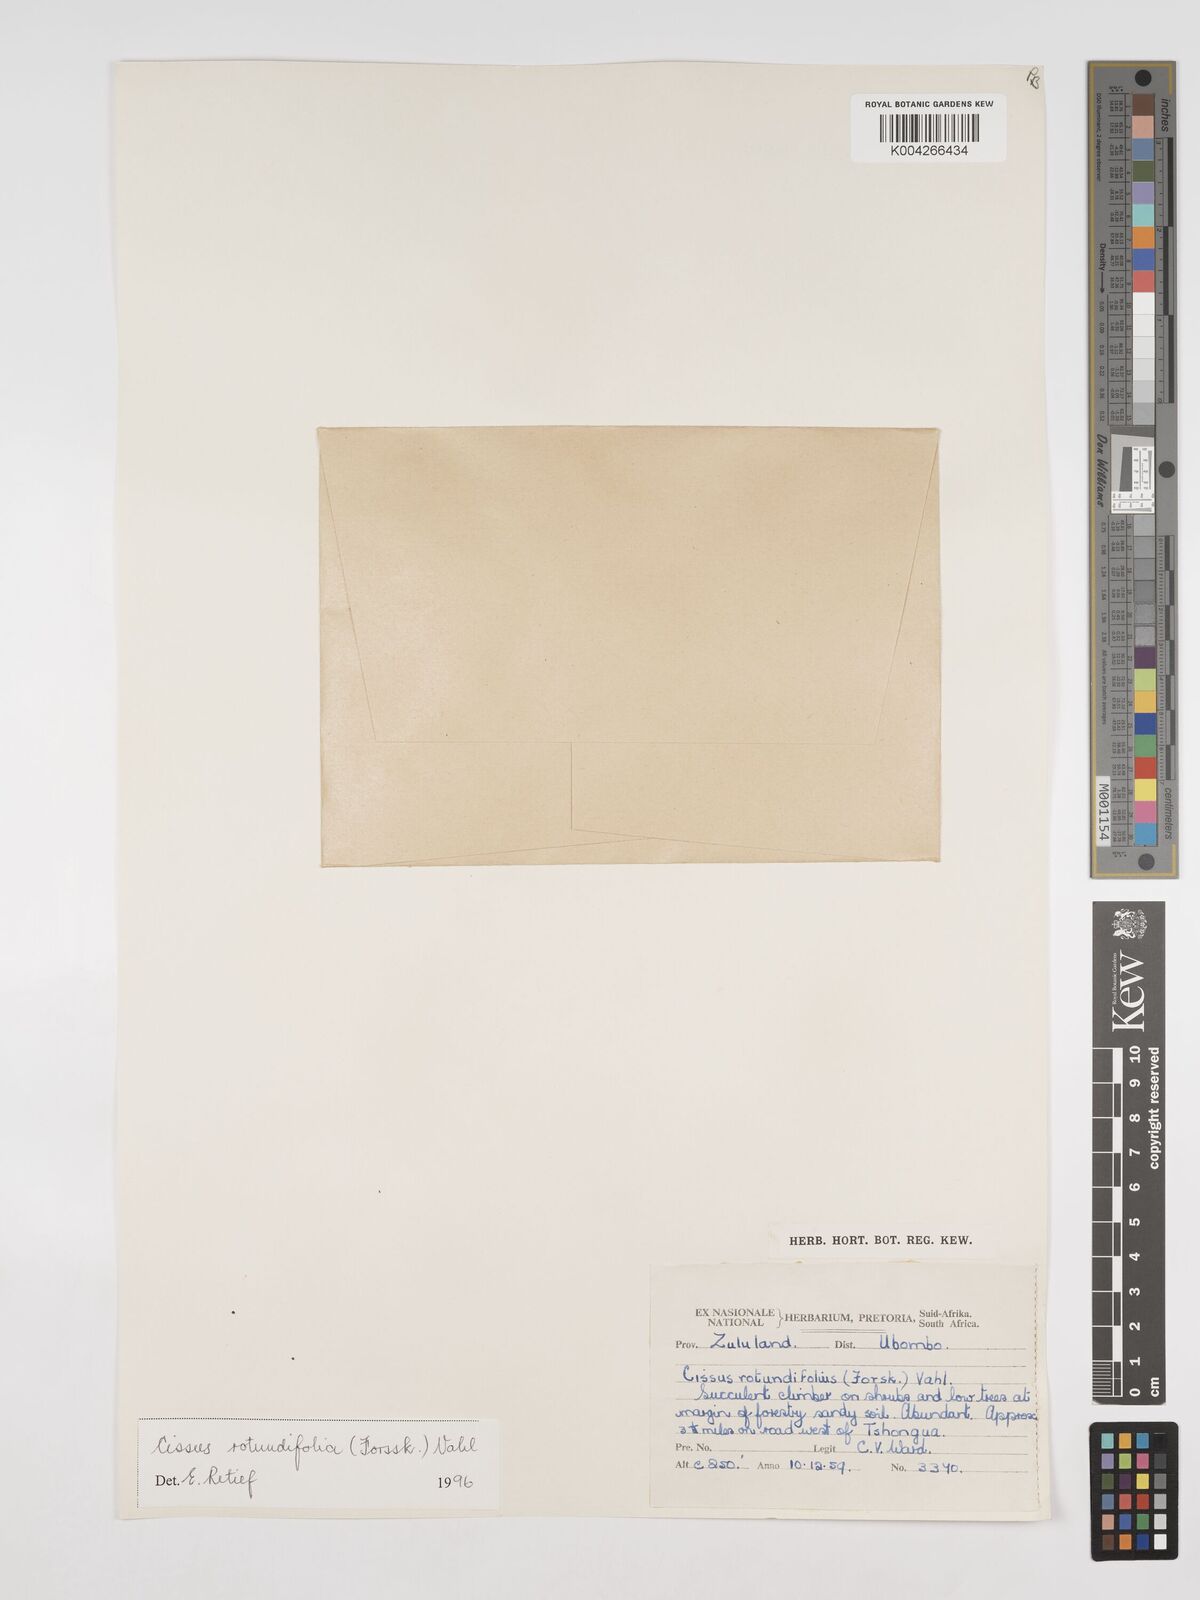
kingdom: Plantae
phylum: Tracheophyta
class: Magnoliopsida
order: Vitales
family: Vitaceae
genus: Cissus
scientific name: Cissus
